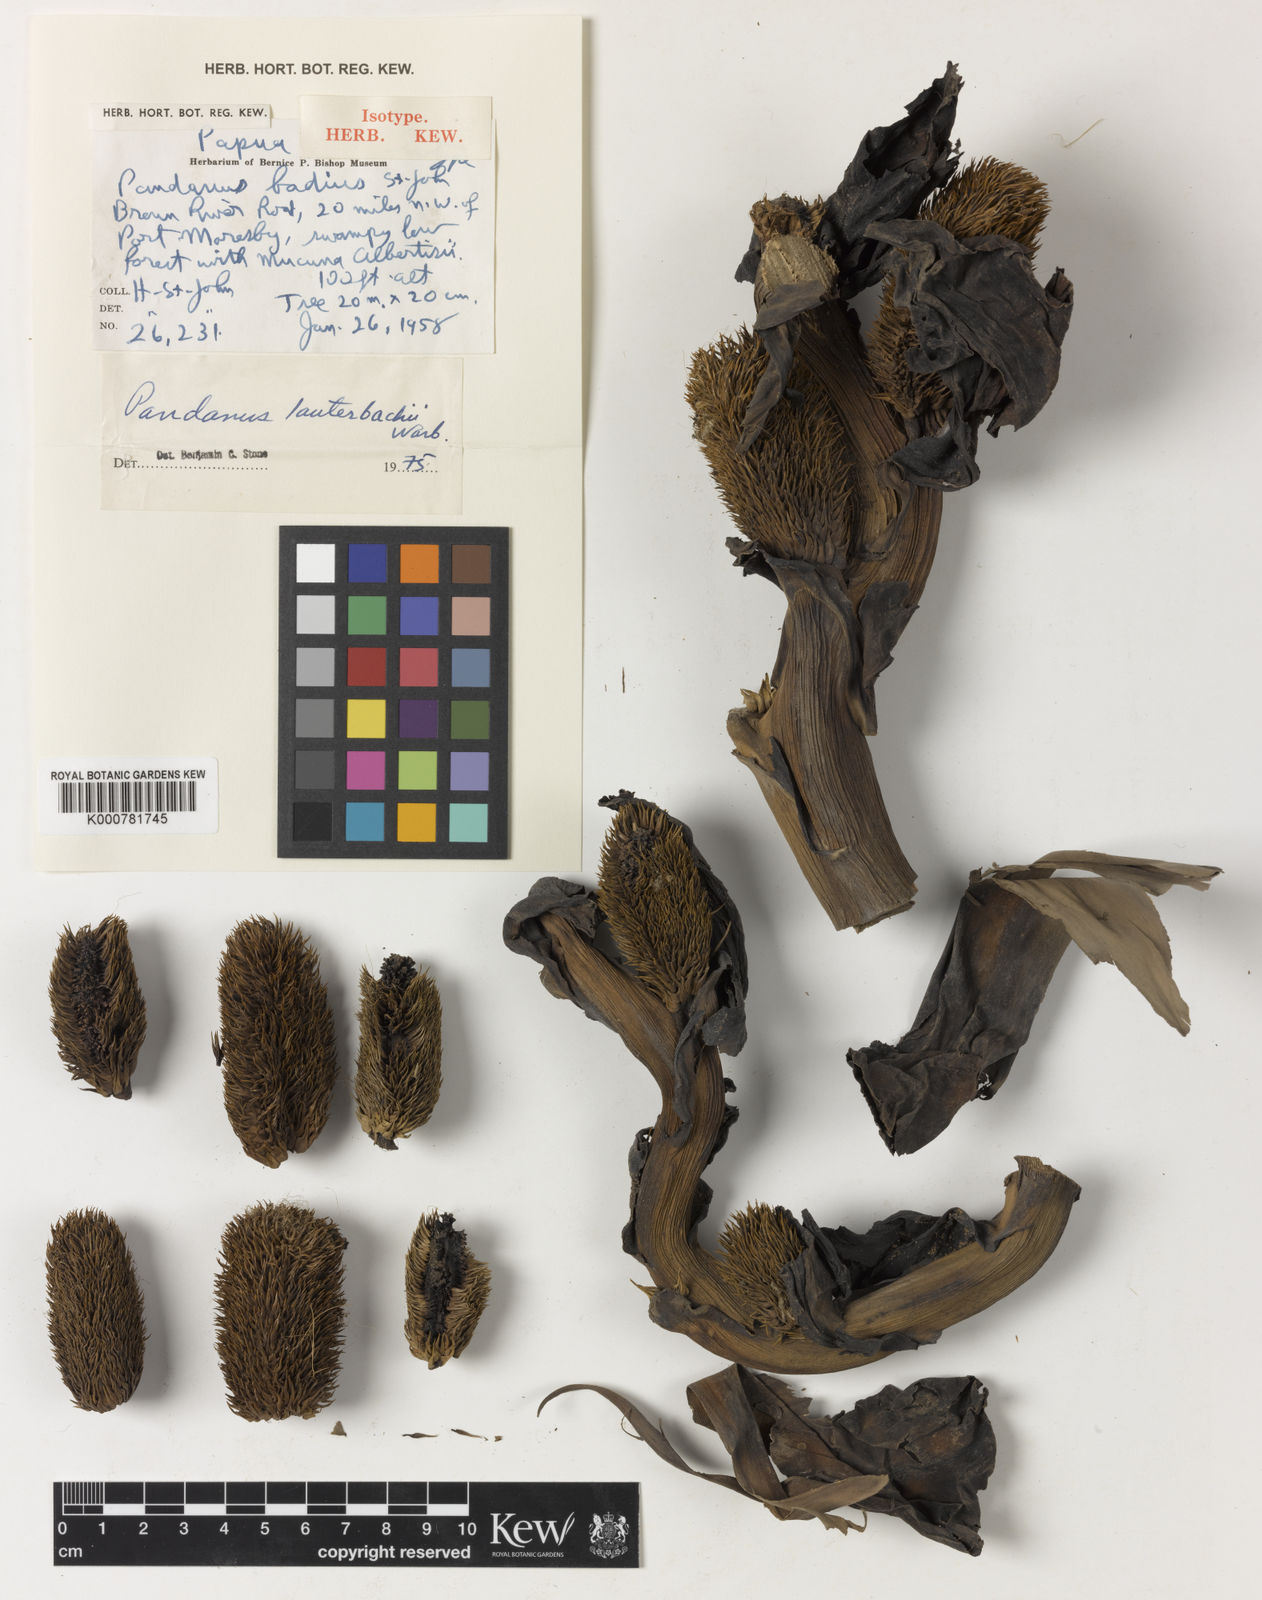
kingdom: Plantae
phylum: Tracheophyta
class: Liliopsida
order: Pandanales
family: Pandanaceae
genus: Benstonea
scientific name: Benstonea lauterbachii
